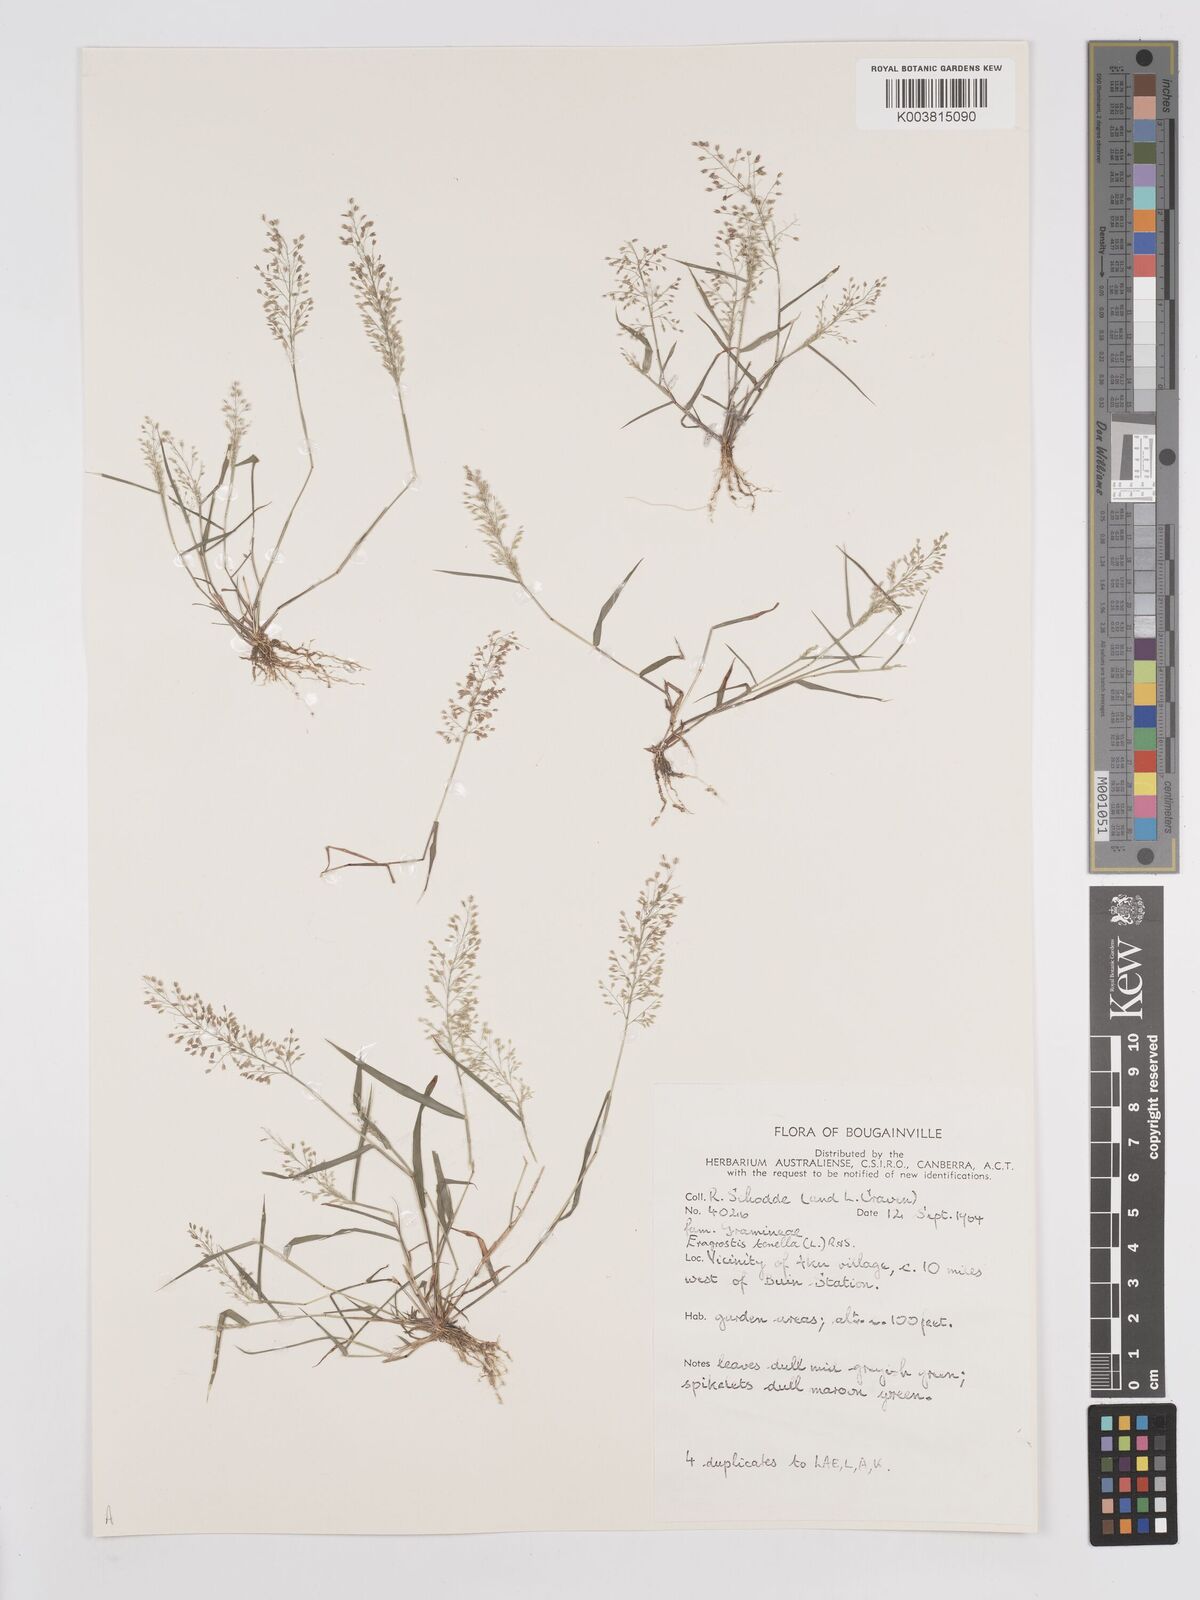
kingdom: Plantae
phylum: Tracheophyta
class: Liliopsida
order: Poales
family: Poaceae
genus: Eragrostis
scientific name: Eragrostis tenella
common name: Japanese lovegrass
